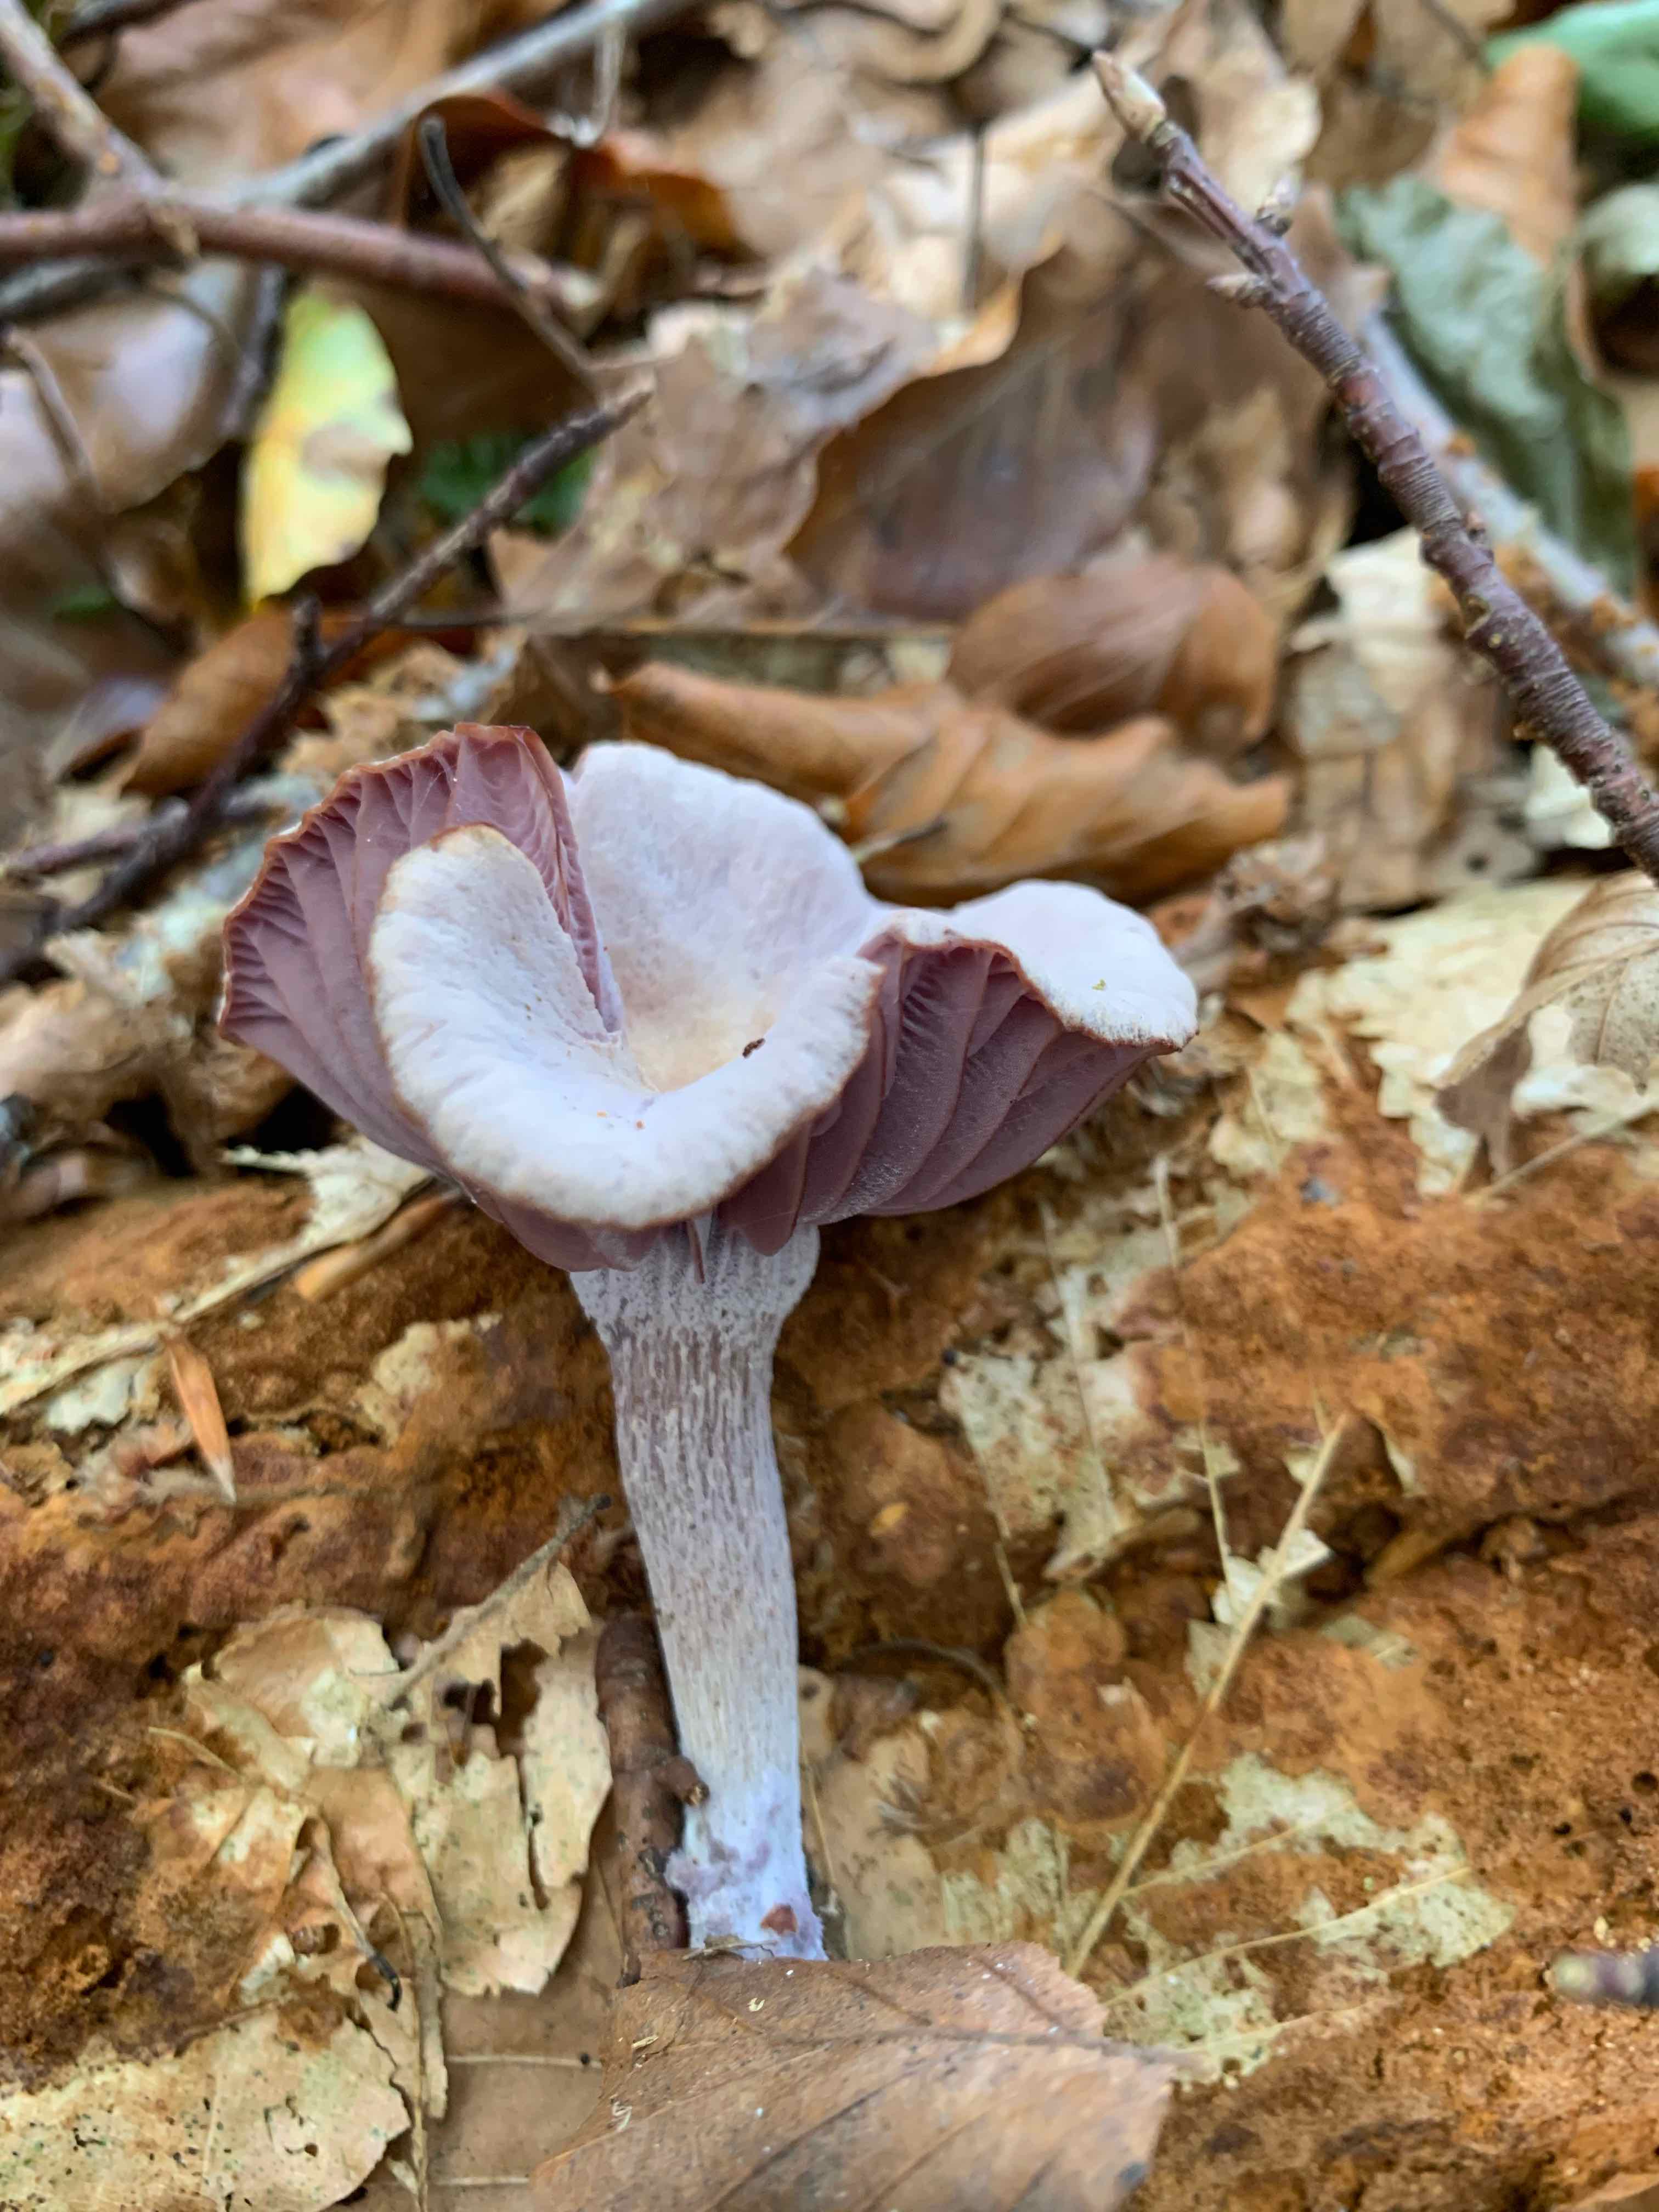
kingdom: Fungi
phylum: Basidiomycota
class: Agaricomycetes
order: Agaricales
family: Hydnangiaceae
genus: Laccaria
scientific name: Laccaria amethystina
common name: violet ametysthat
